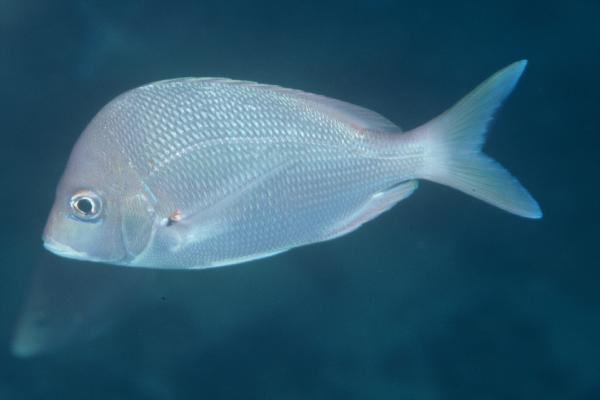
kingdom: Animalia
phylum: Chordata
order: Perciformes
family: Sparidae
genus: Chrysoblephus
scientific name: Chrysoblephus puniceus
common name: Slinger seabream
